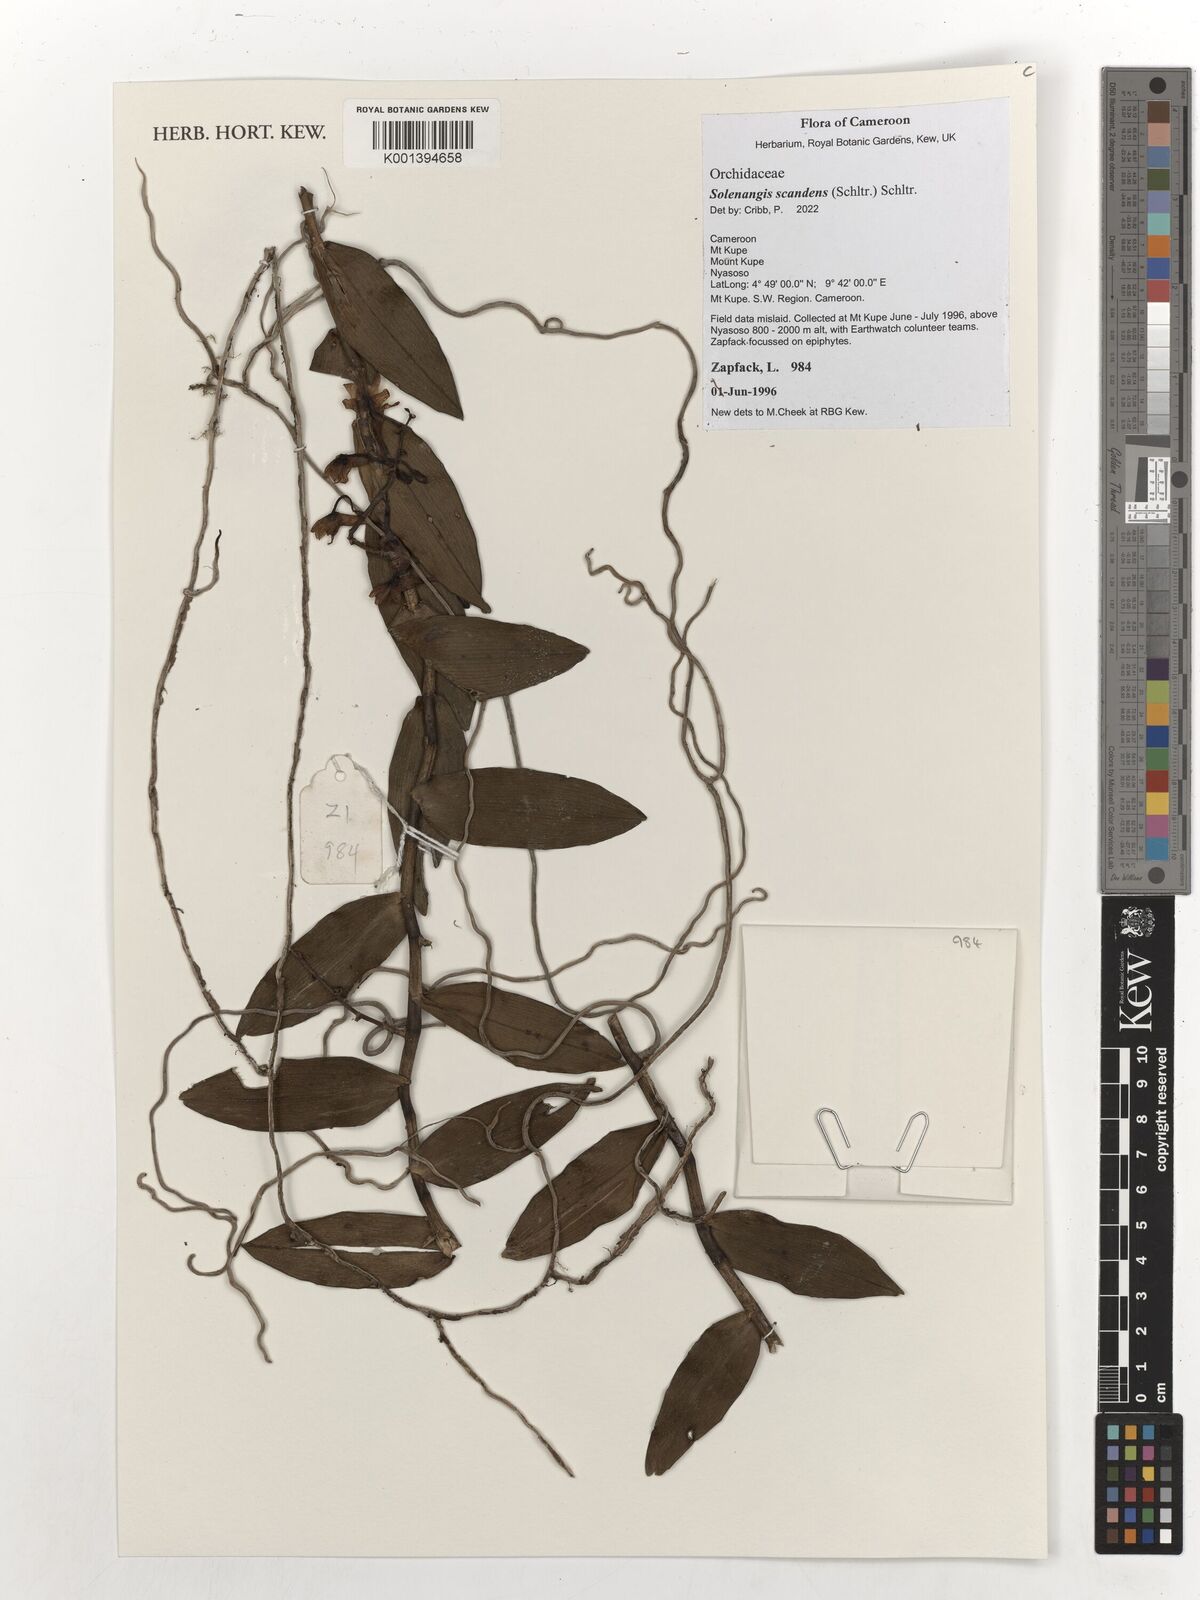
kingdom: Plantae
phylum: Tracheophyta
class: Liliopsida
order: Asparagales
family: Orchidaceae
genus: Solenangis
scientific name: Solenangis scandens
